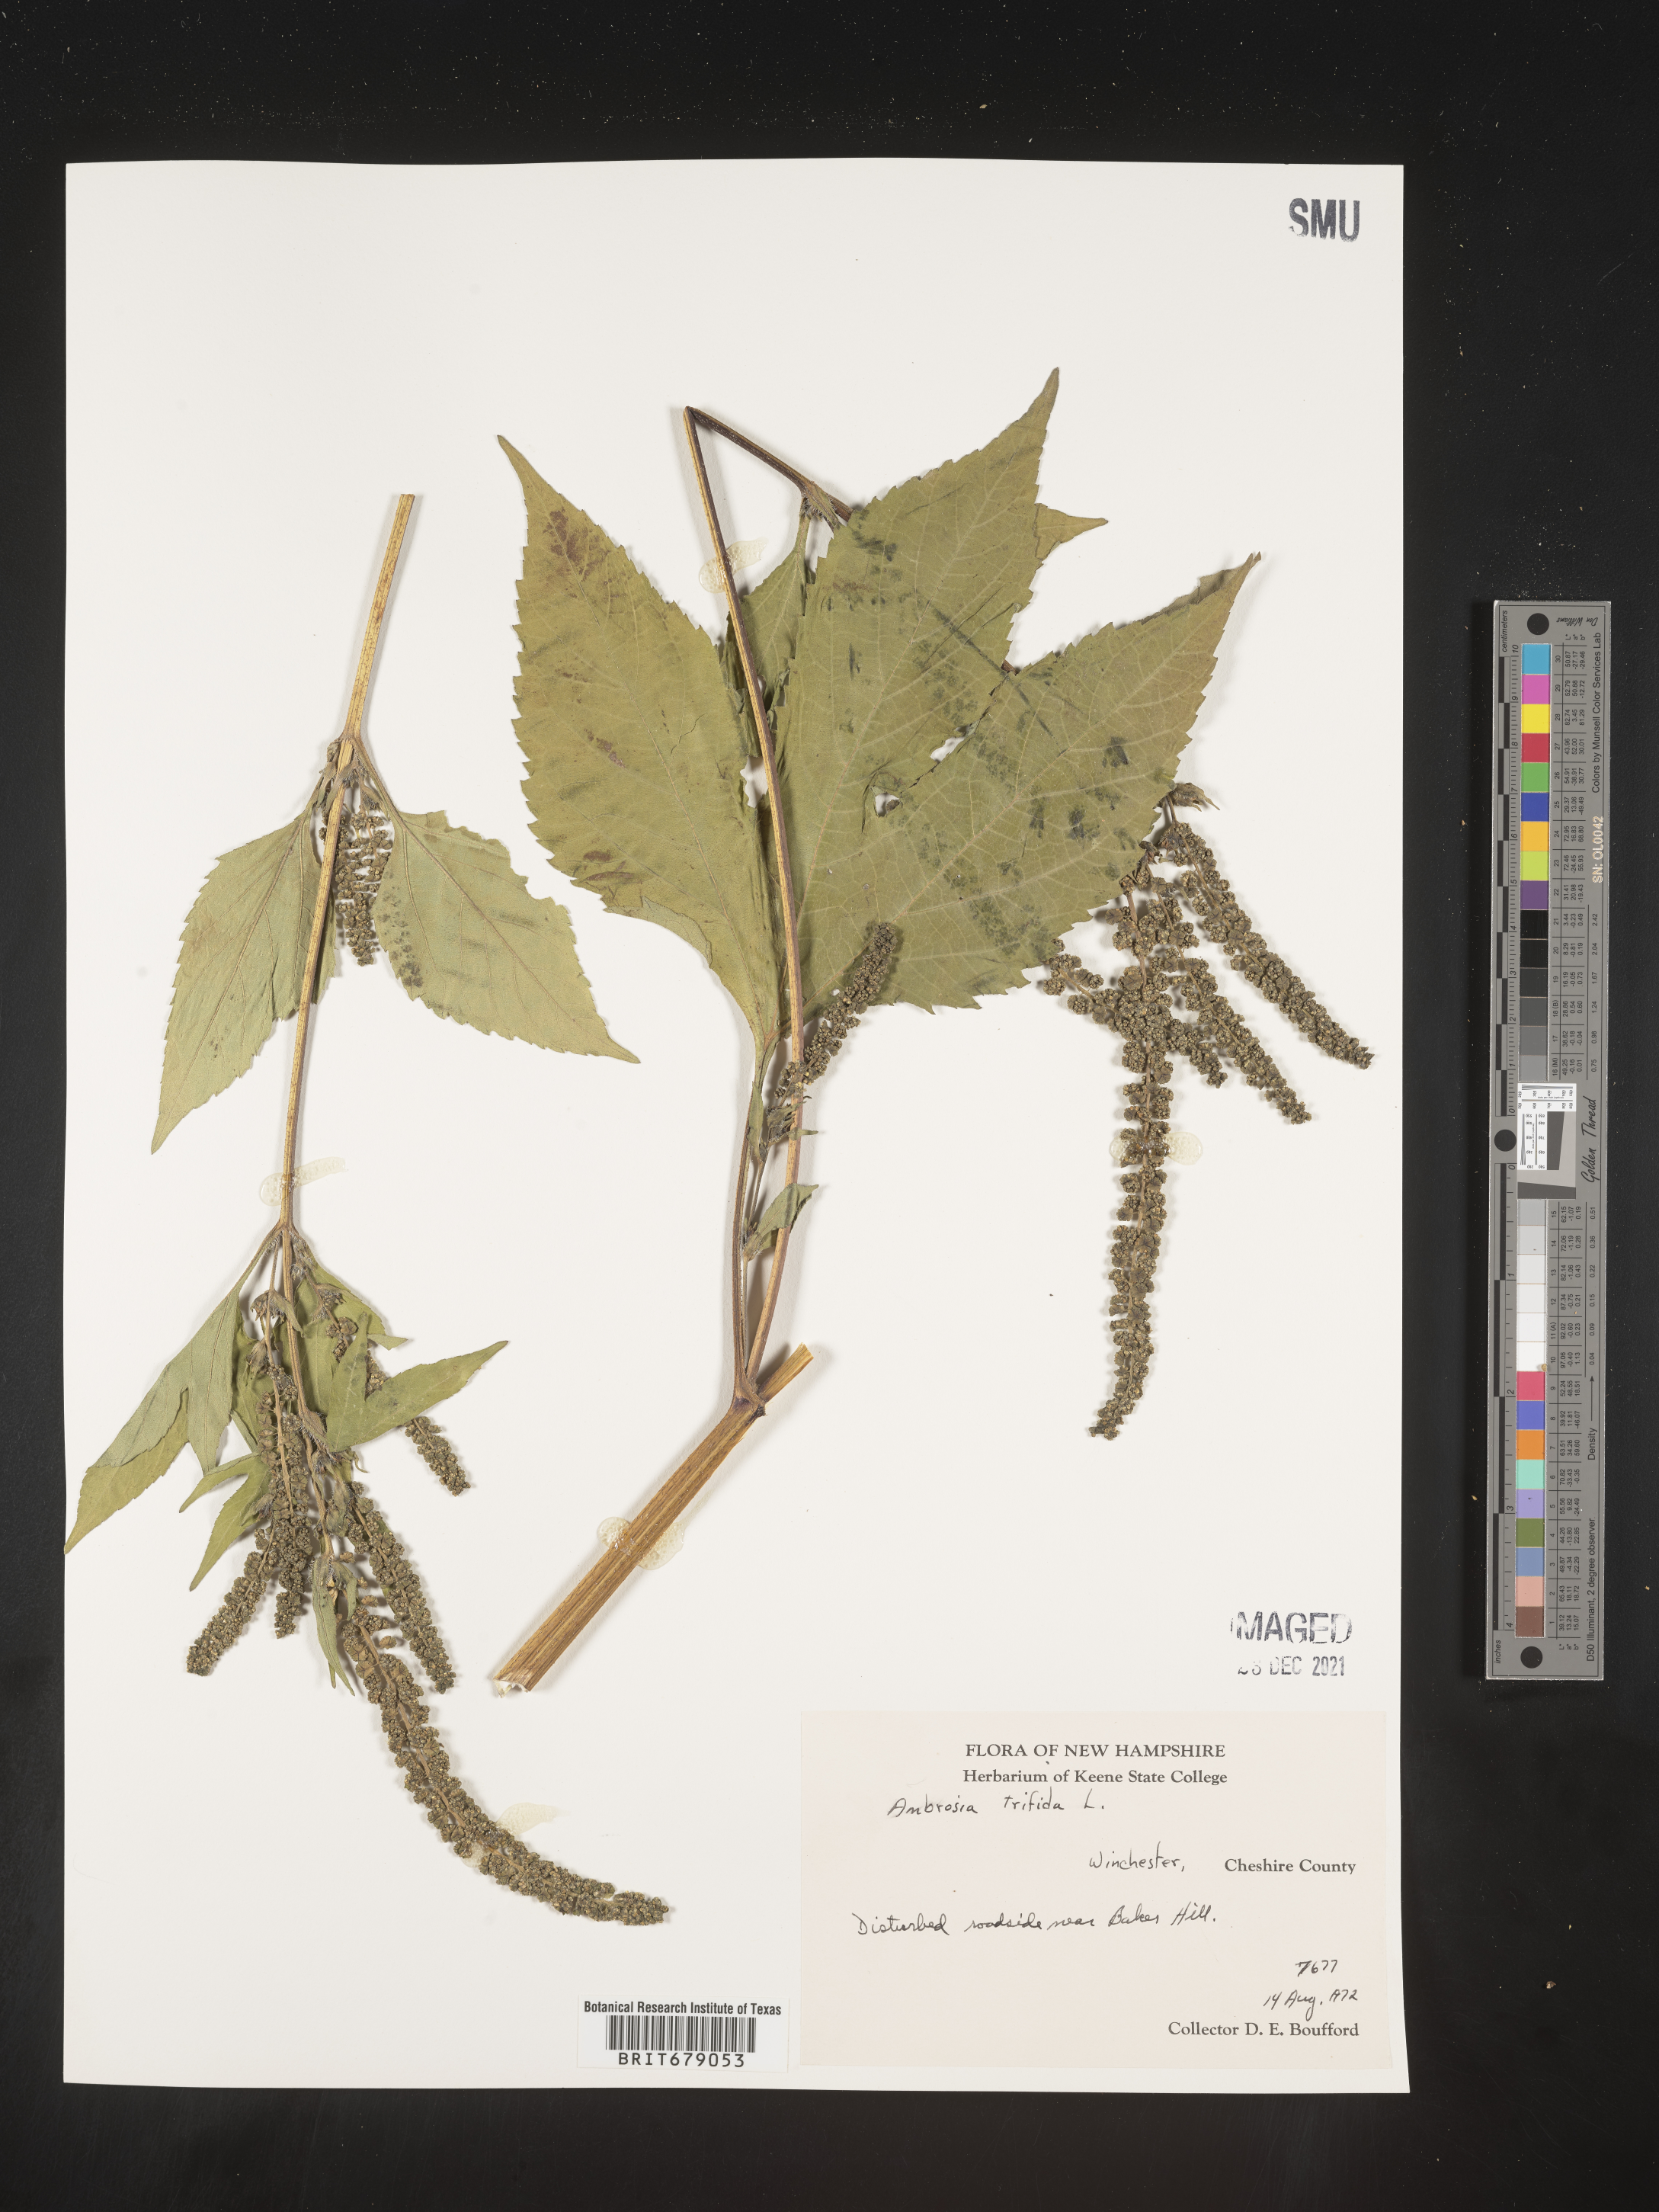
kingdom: Plantae
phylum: Tracheophyta
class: Magnoliopsida
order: Asterales
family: Asteraceae
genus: Ambrosia
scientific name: Ambrosia trifida
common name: Giant ragweed
